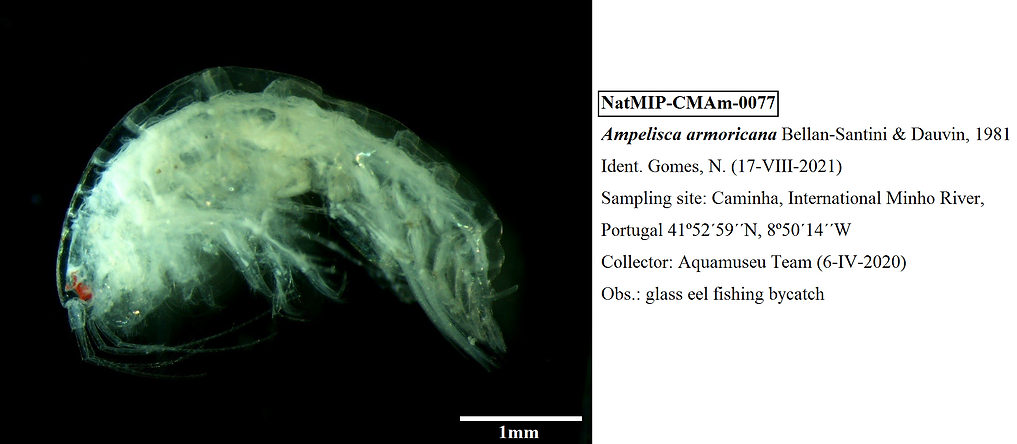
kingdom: Animalia
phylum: Arthropoda
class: Malacostraca
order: Amphipoda
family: Ampeliscidae
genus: Ampelisca
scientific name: Ampelisca armoricana
